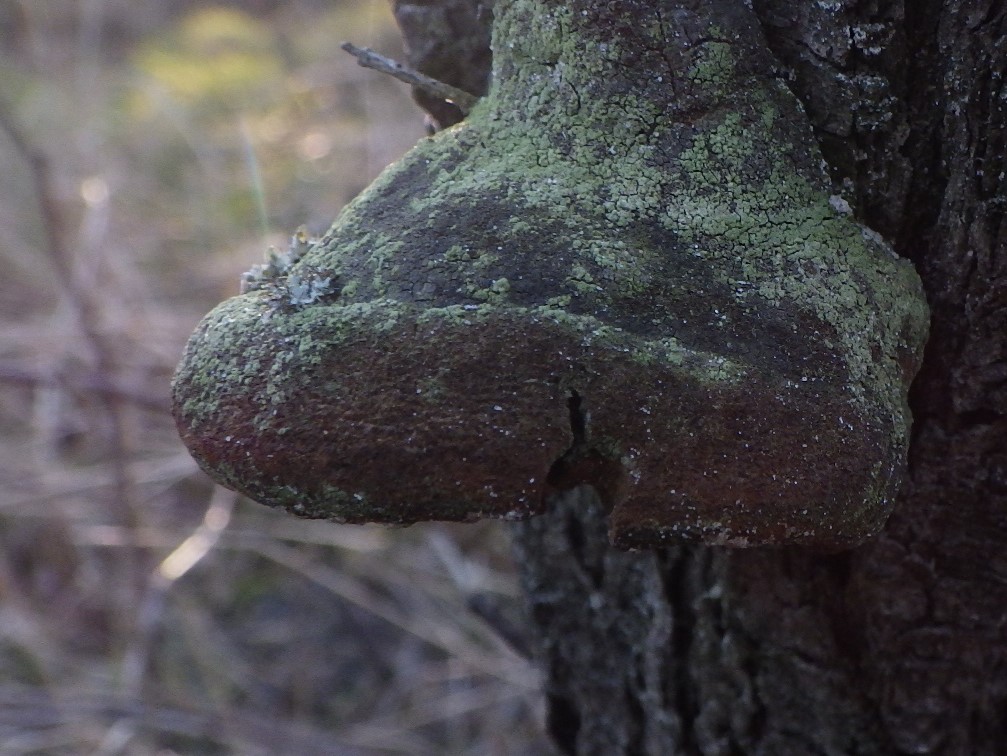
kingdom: Fungi
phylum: Basidiomycota
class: Agaricomycetes
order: Hymenochaetales
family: Hymenochaetaceae
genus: Fomitiporia
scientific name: Fomitiporia hippophaeicola
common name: havtorn-ildporesvamp
